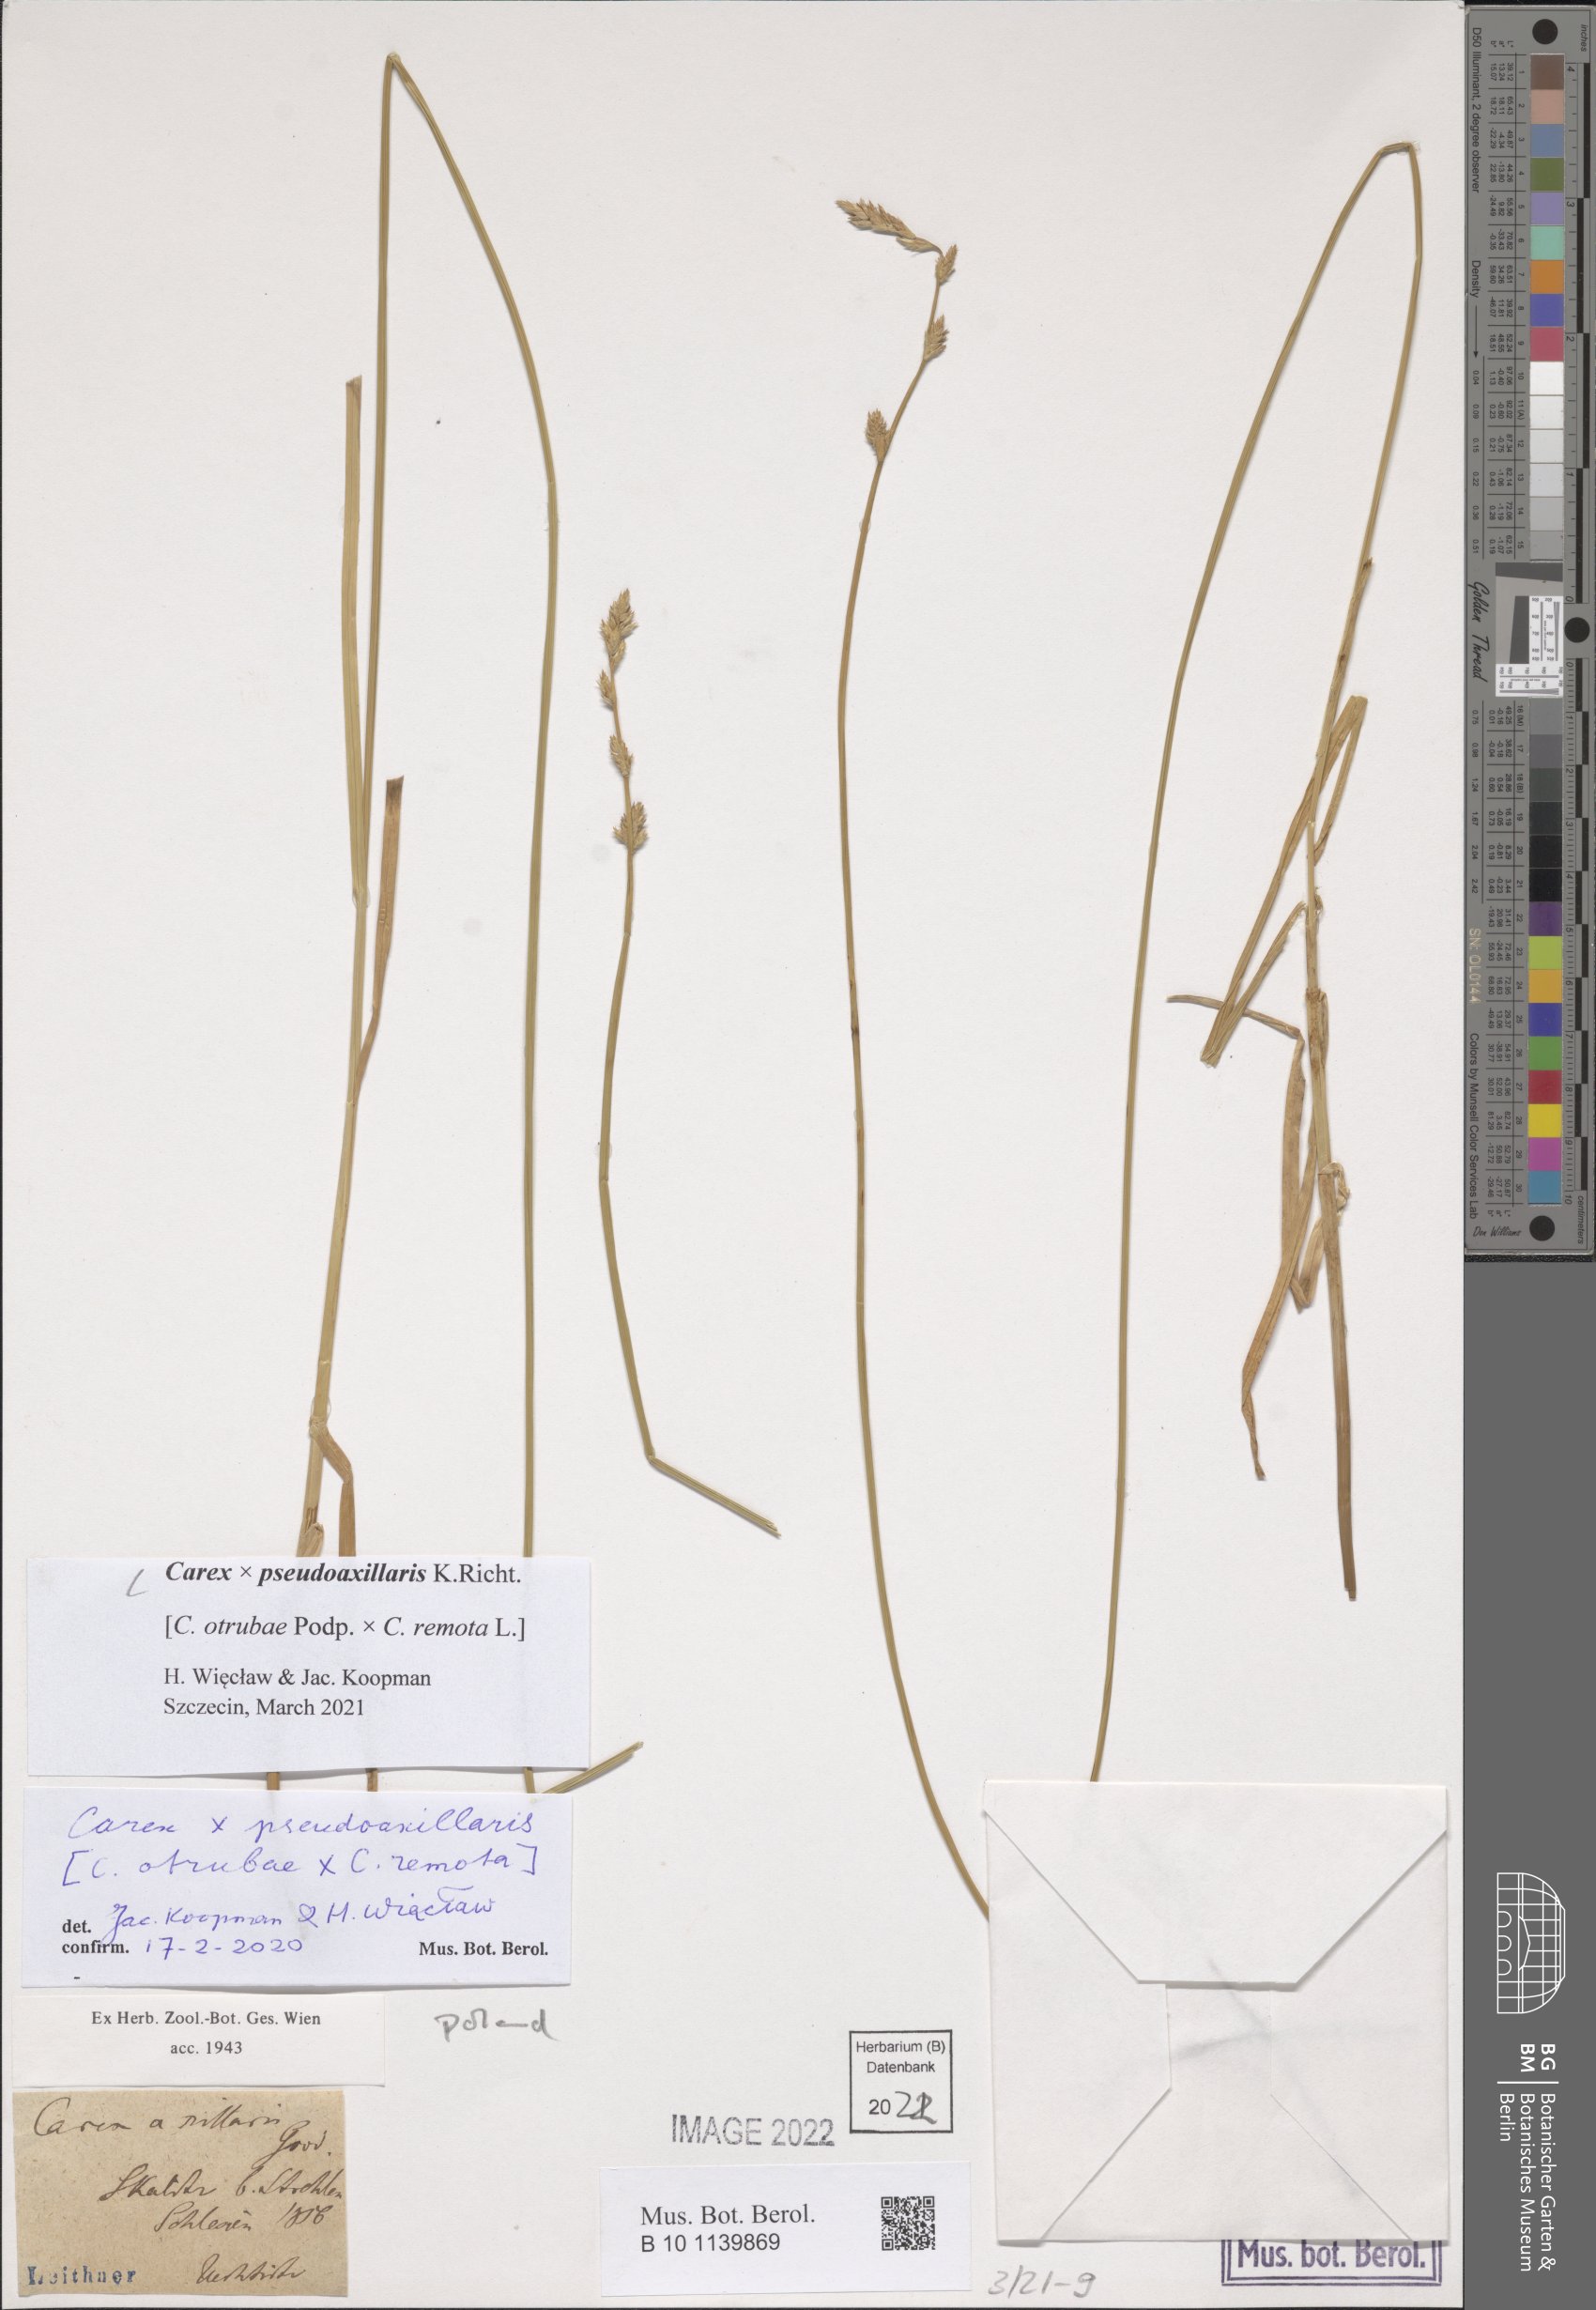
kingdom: Plantae
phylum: Tracheophyta
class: Liliopsida
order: Poales
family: Cyperaceae
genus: Carex
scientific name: Carex pseudoaxillaris
